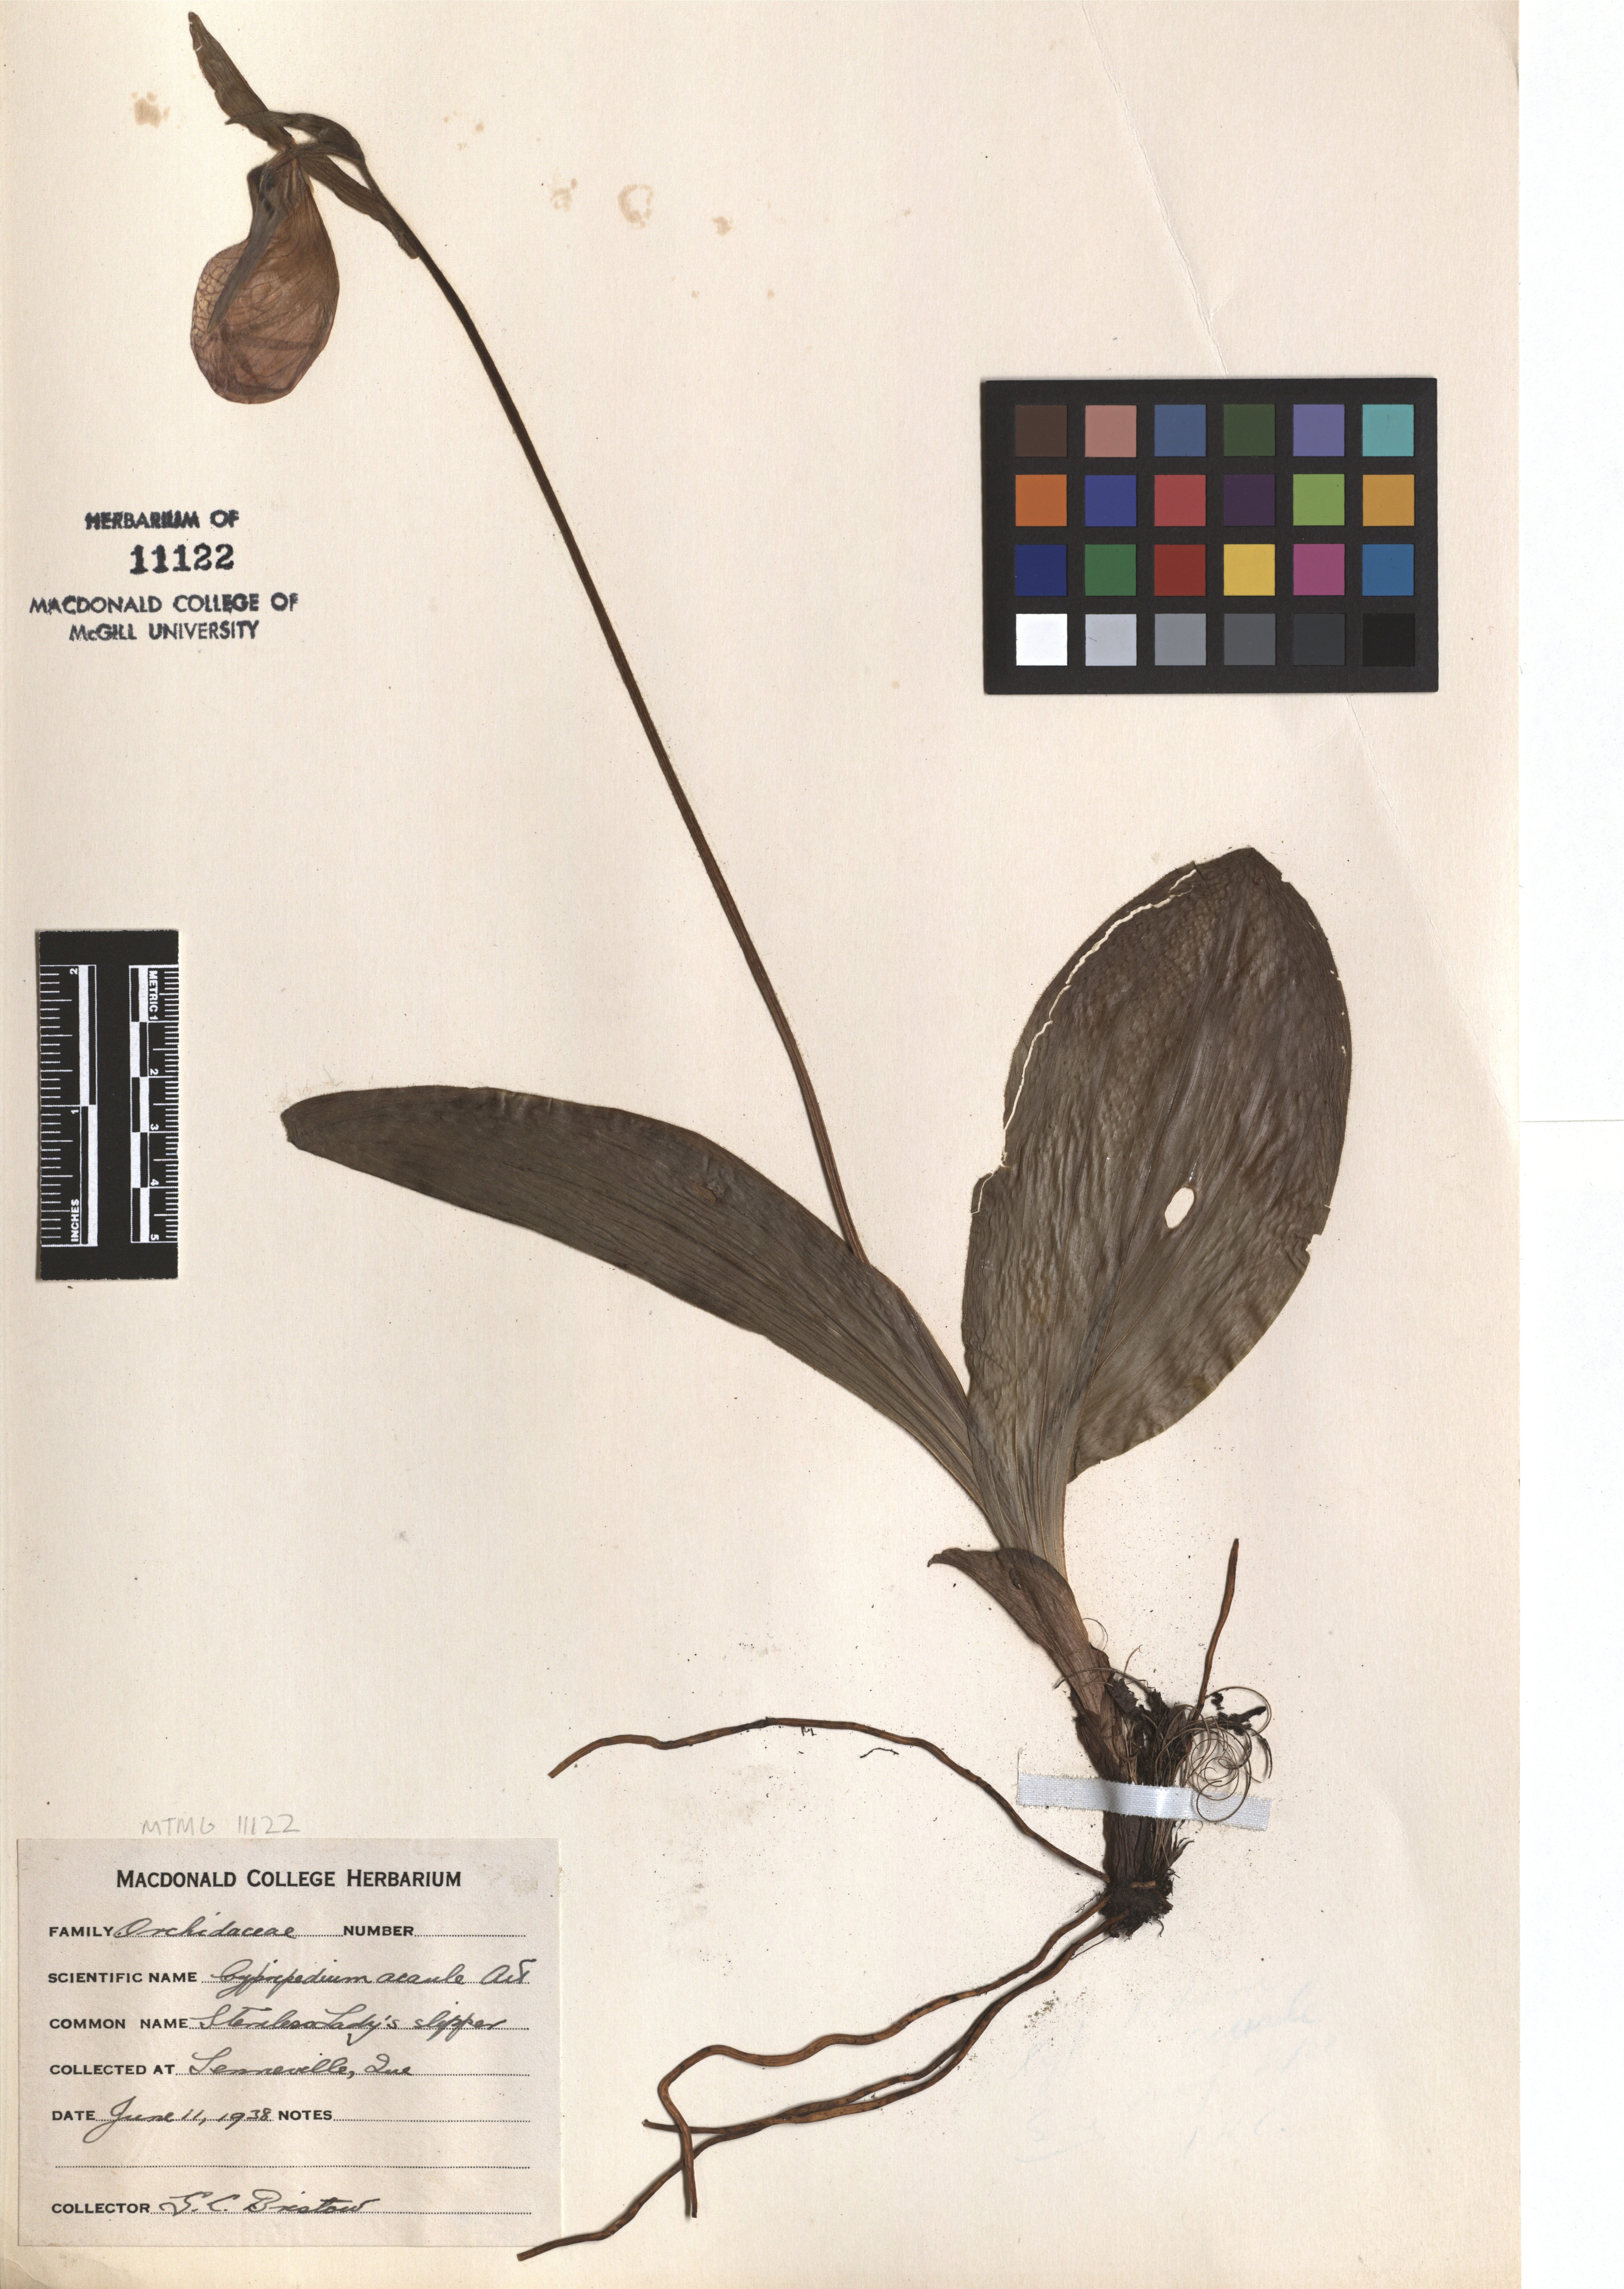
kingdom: Plantae
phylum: Tracheophyta
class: Liliopsida
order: Asparagales
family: Orchidaceae
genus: Cypripedium
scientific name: Cypripedium acaule
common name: Pink lady's-slipper
